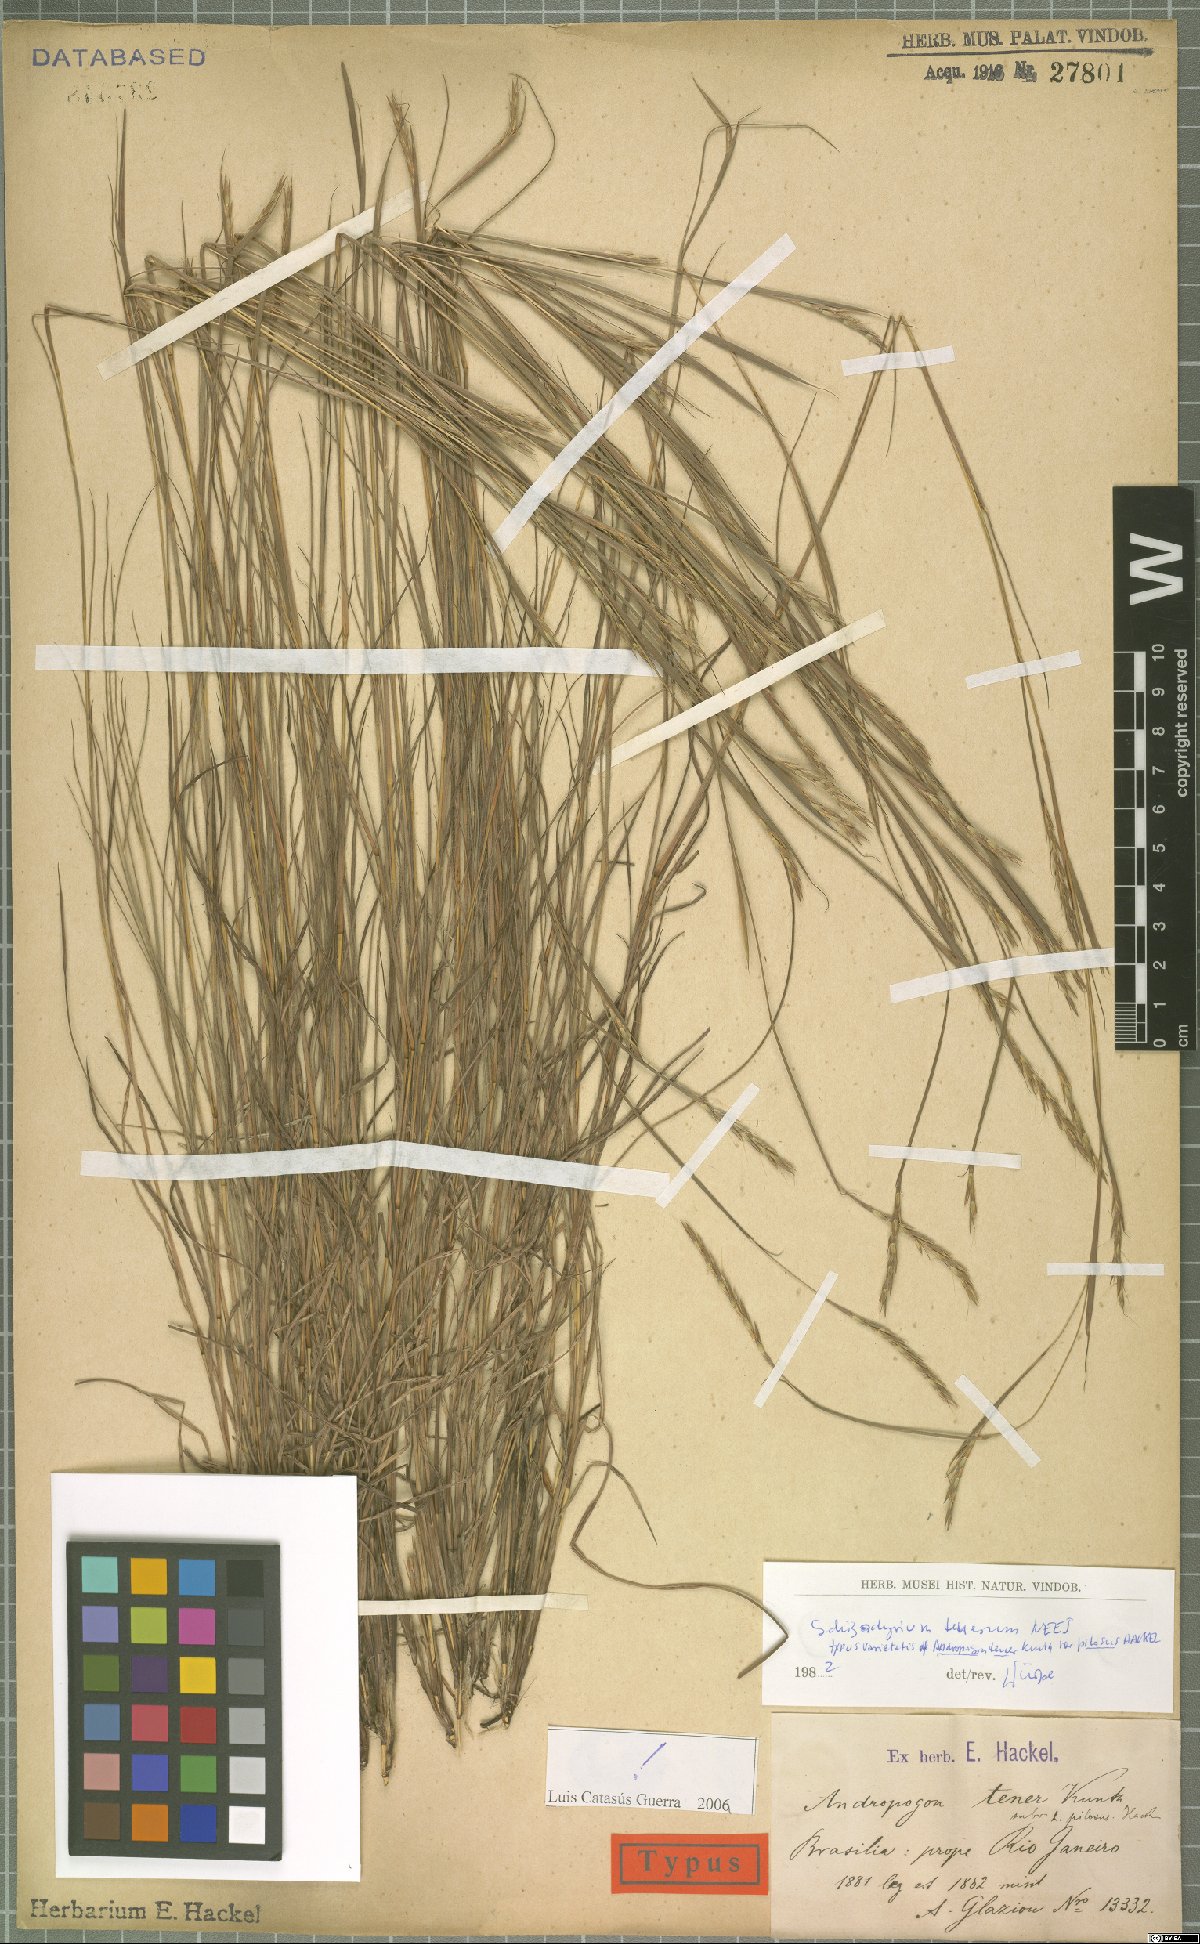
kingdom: Plantae
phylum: Tracheophyta
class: Liliopsida
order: Poales
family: Poaceae
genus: Andropogon
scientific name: Andropogon tener
